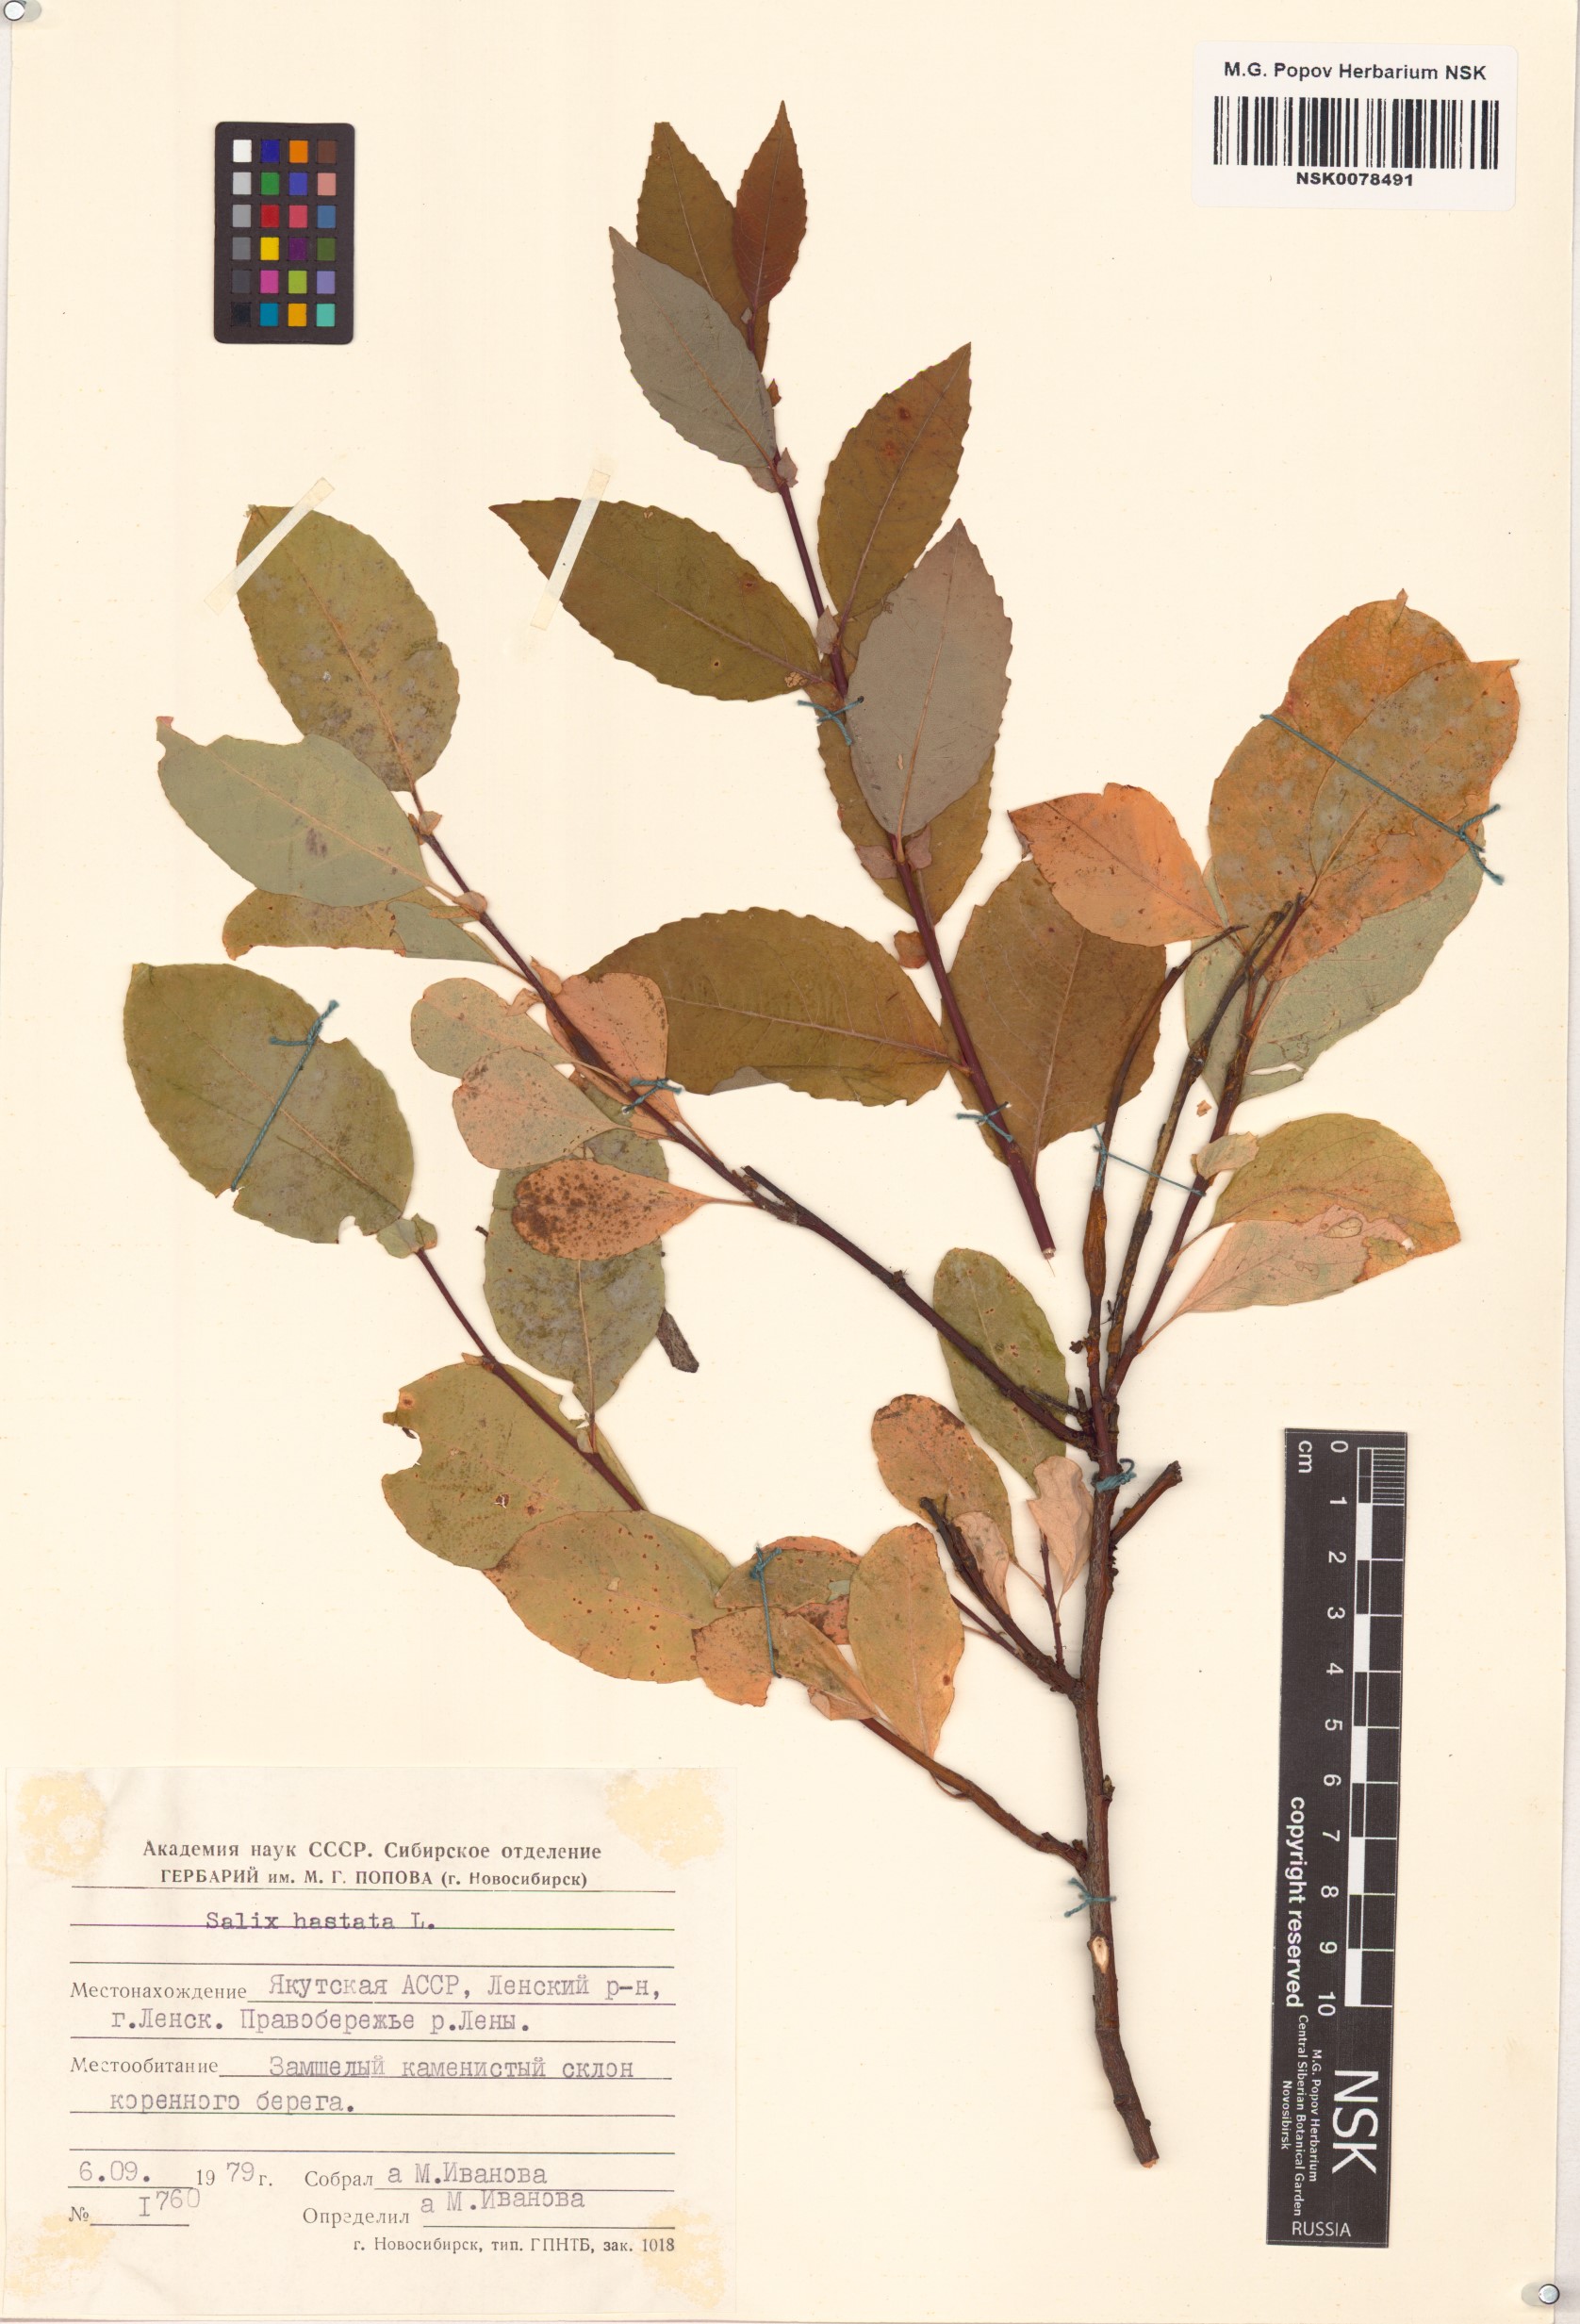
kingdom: Plantae
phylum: Tracheophyta
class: Magnoliopsida
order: Malpighiales
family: Salicaceae
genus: Salix
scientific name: Salix hastata
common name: Halberd willow
